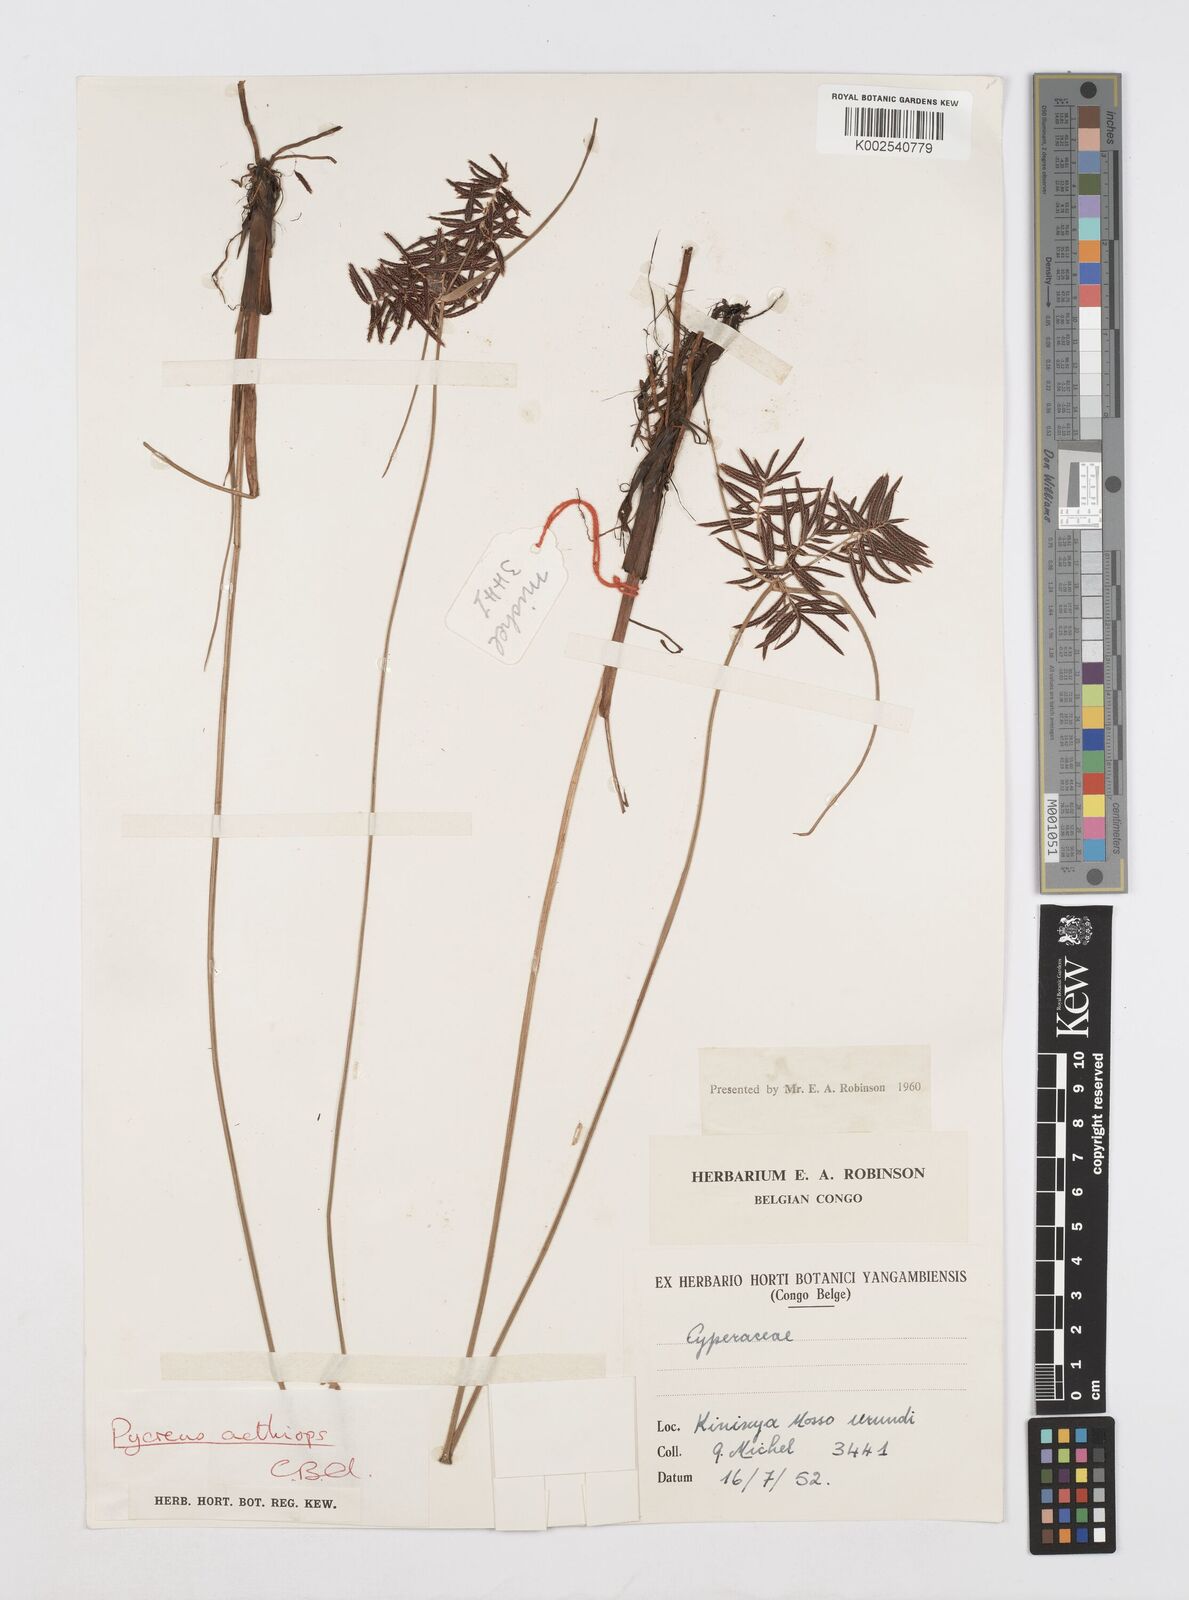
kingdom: Plantae
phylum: Tracheophyta
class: Liliopsida
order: Poales
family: Cyperaceae
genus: Cyperus
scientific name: Cyperus aethiops
